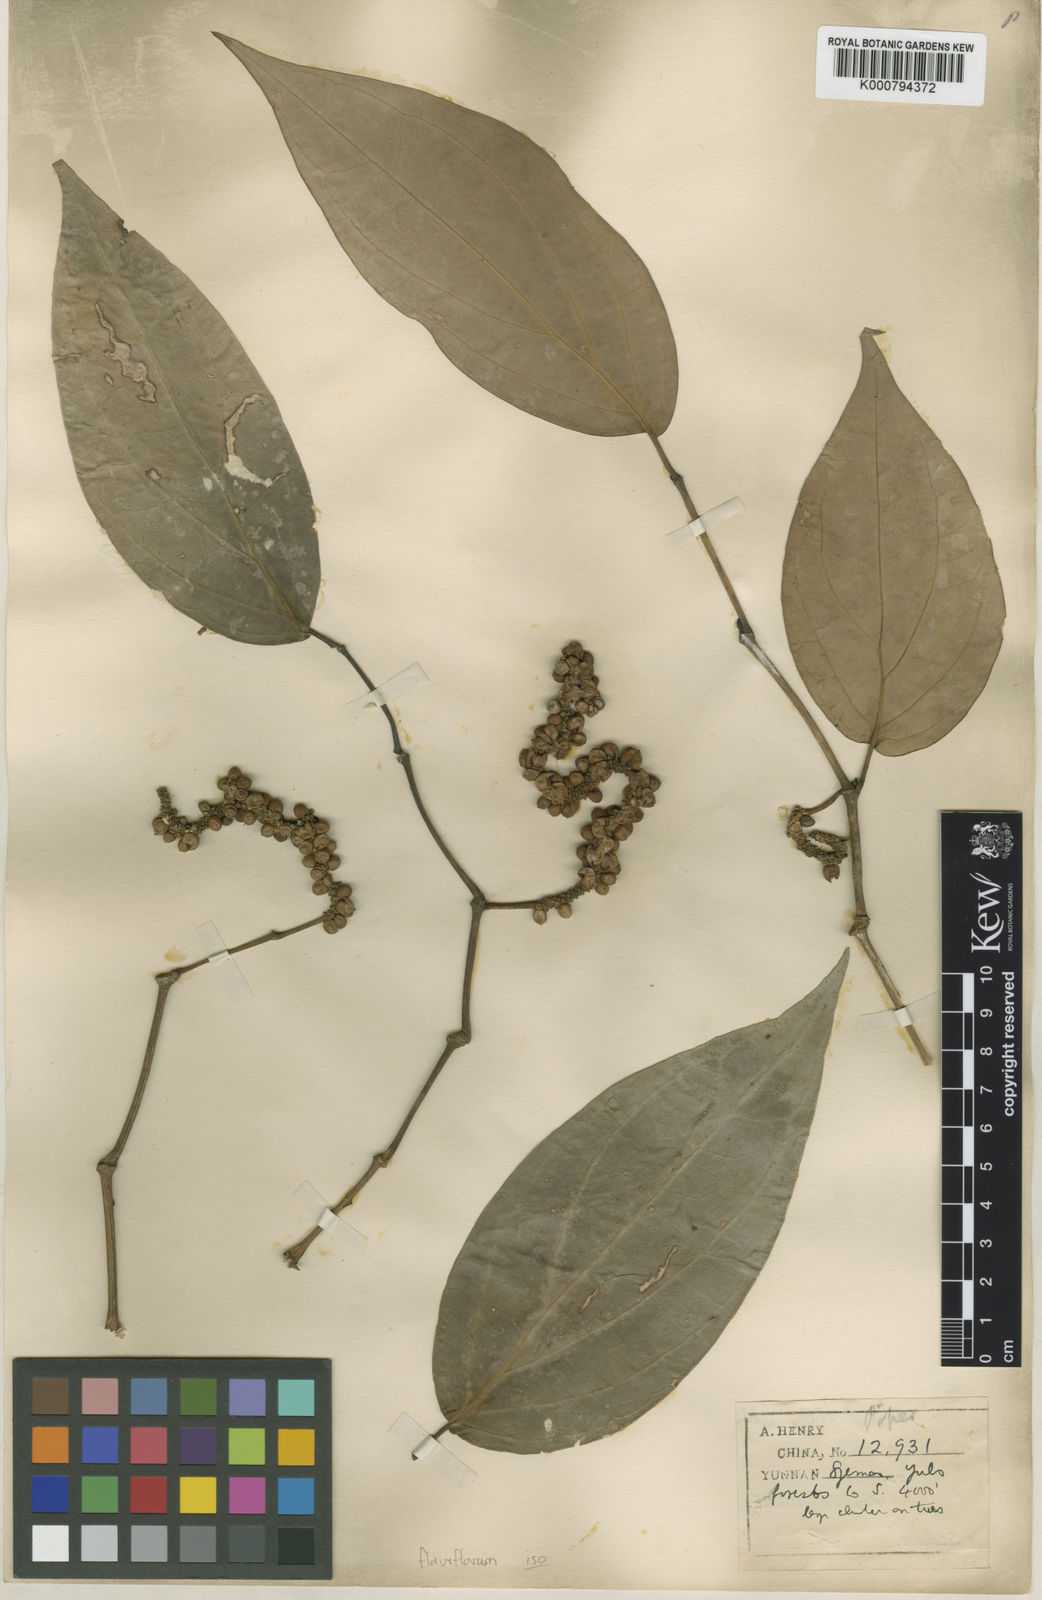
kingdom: Plantae
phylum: Tracheophyta
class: Magnoliopsida
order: Piperales
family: Piperaceae
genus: Piper
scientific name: Piper wallichii
